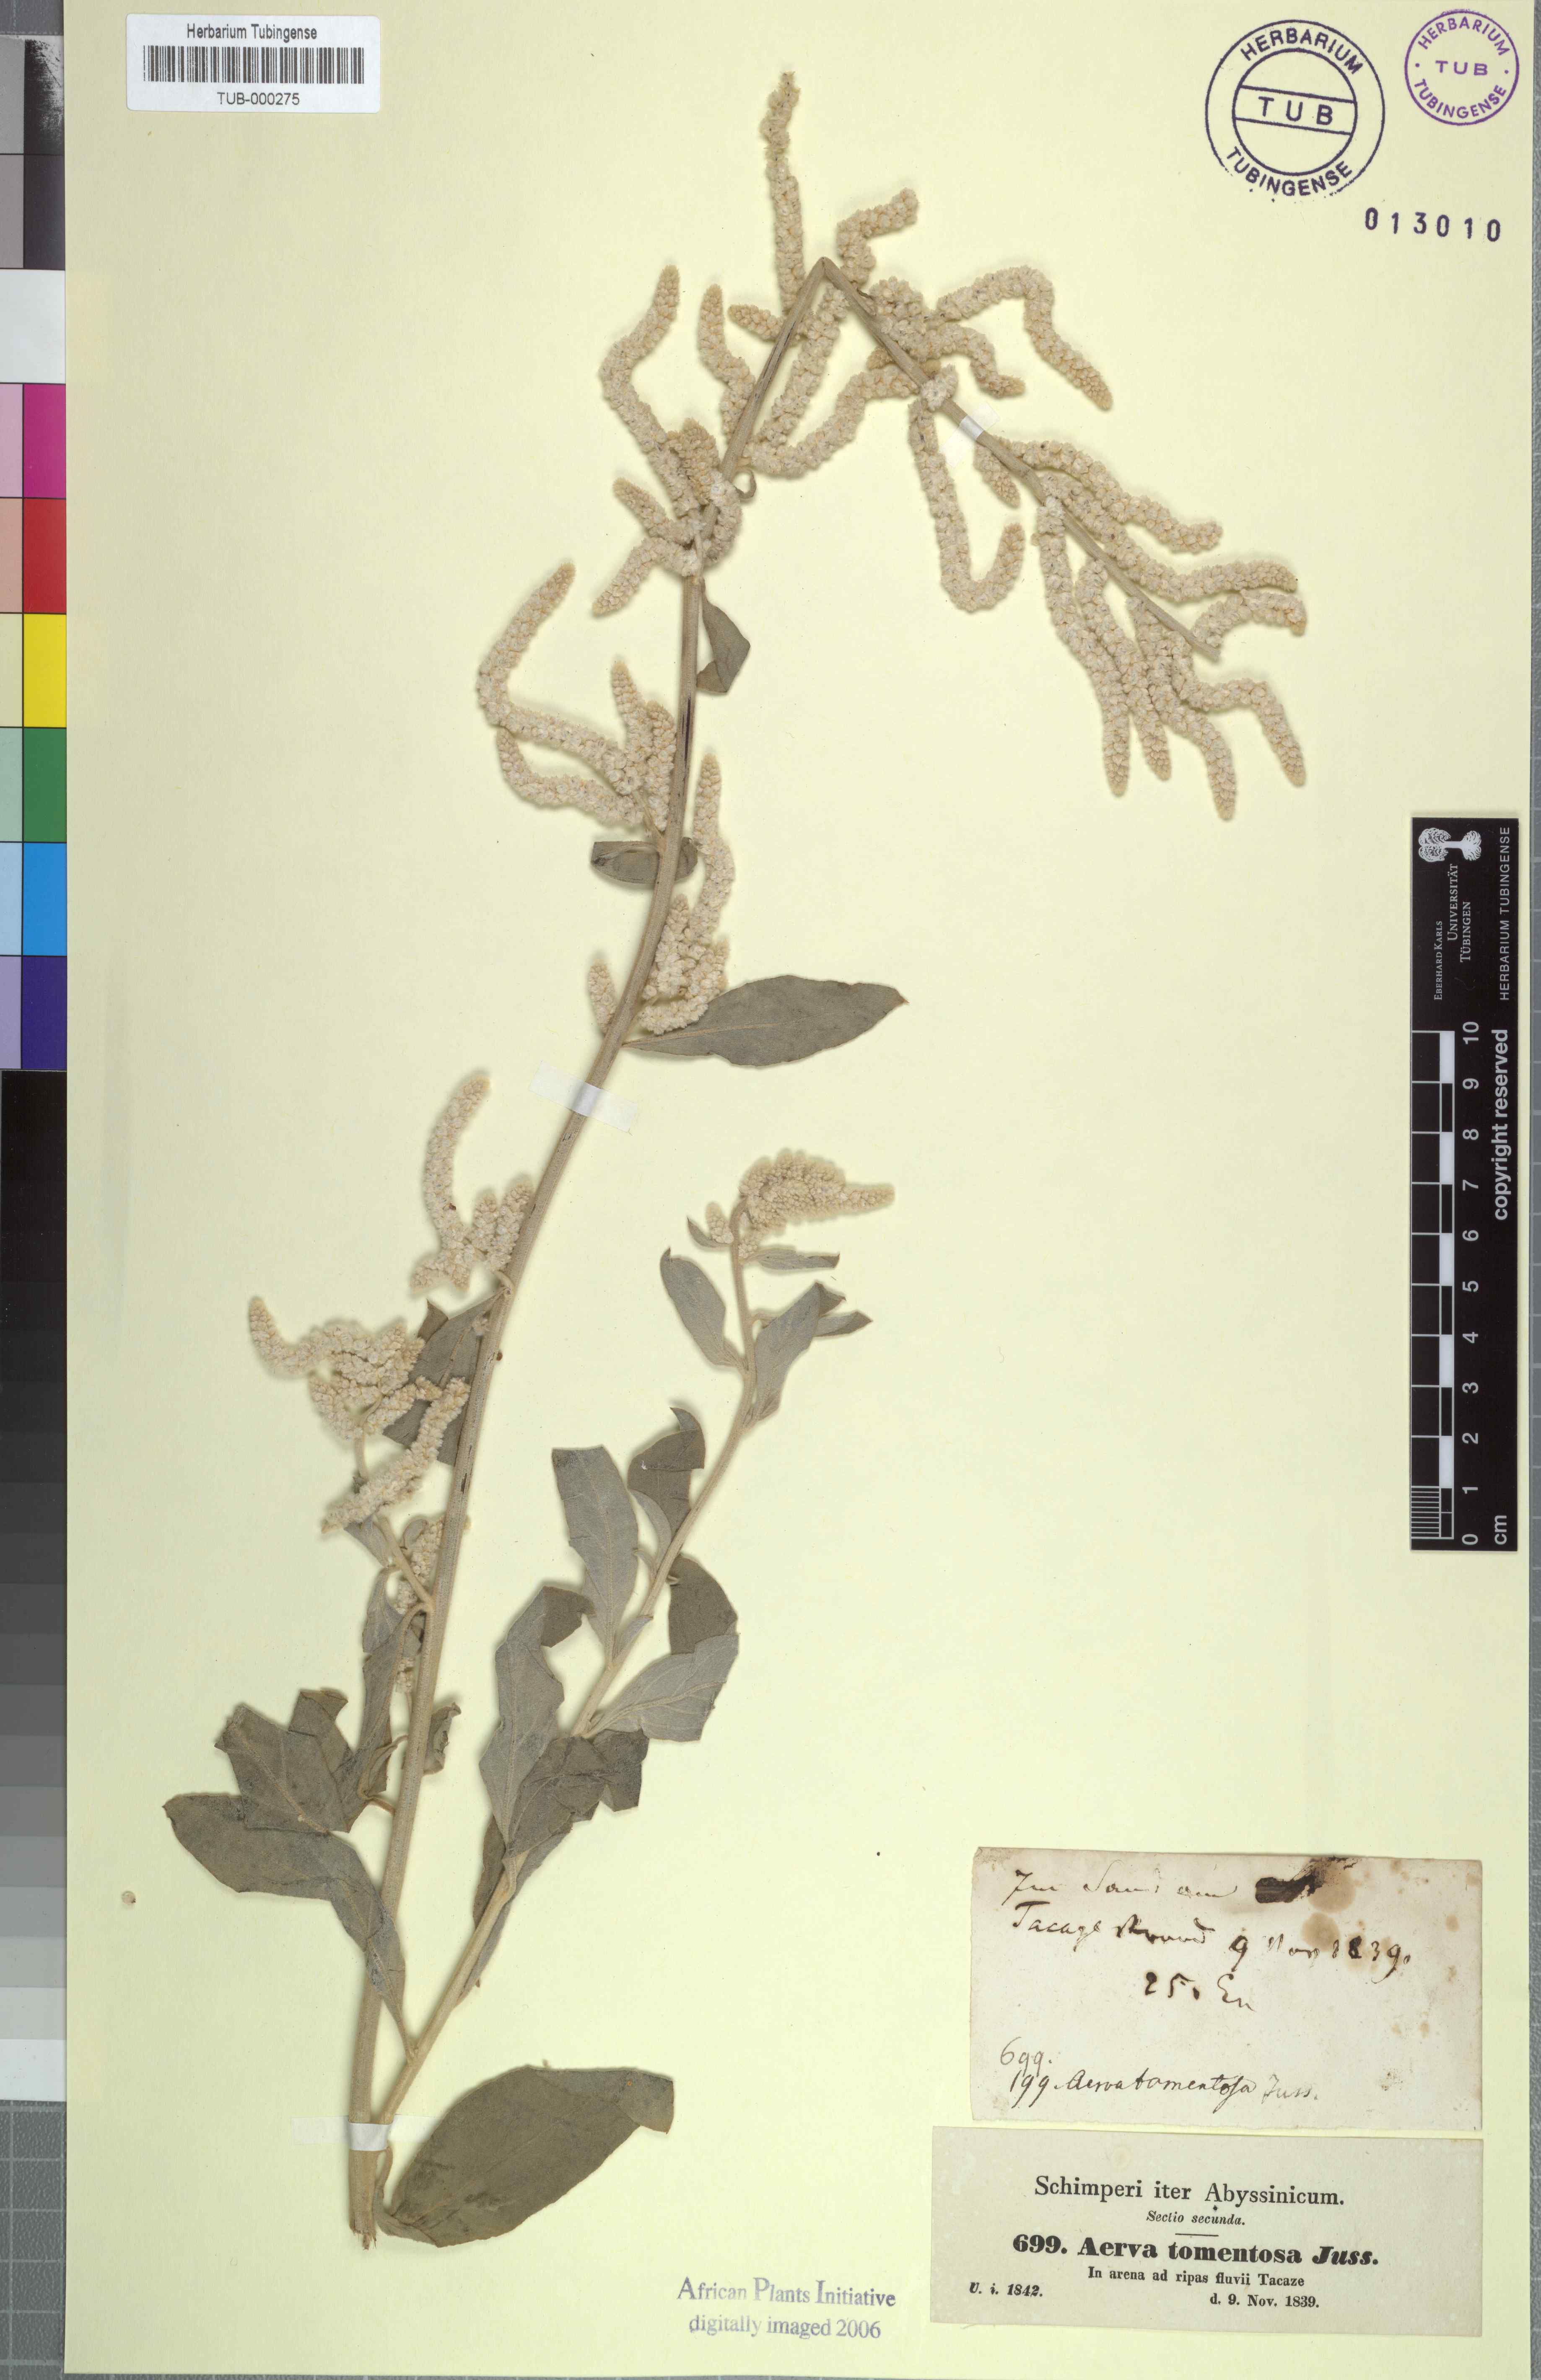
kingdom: Plantae
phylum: Tracheophyta
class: Magnoliopsida
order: Caryophyllales
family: Amaranthaceae
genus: Aerva
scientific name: Aerva javanica
